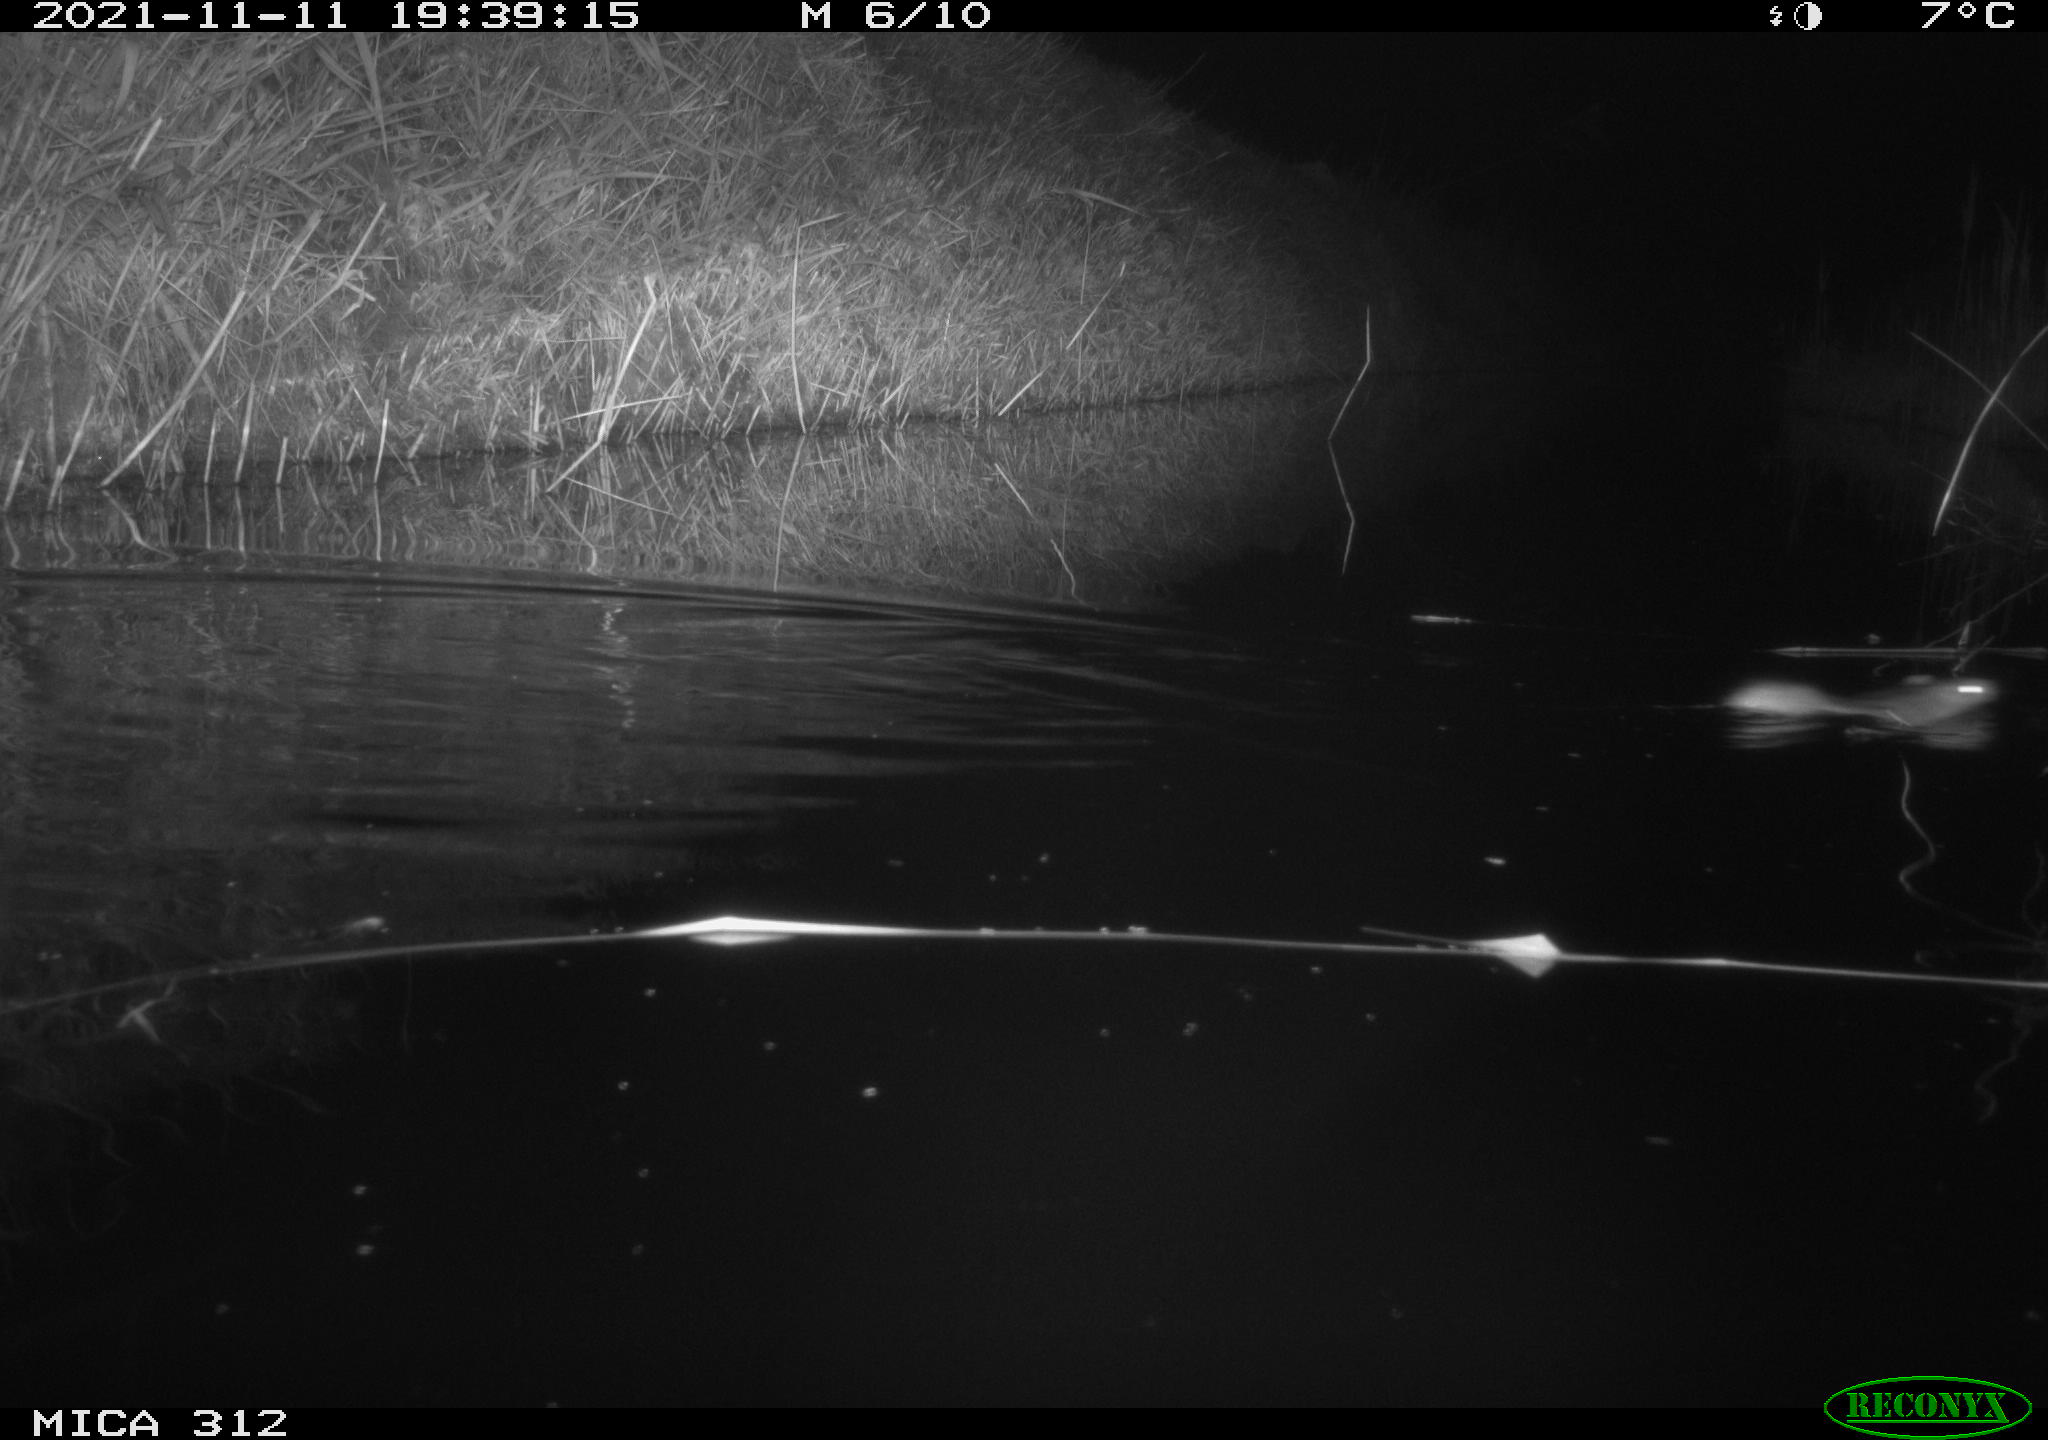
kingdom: Animalia
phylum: Chordata
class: Mammalia
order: Rodentia
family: Muridae
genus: Rattus
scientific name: Rattus norvegicus
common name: Brown rat
